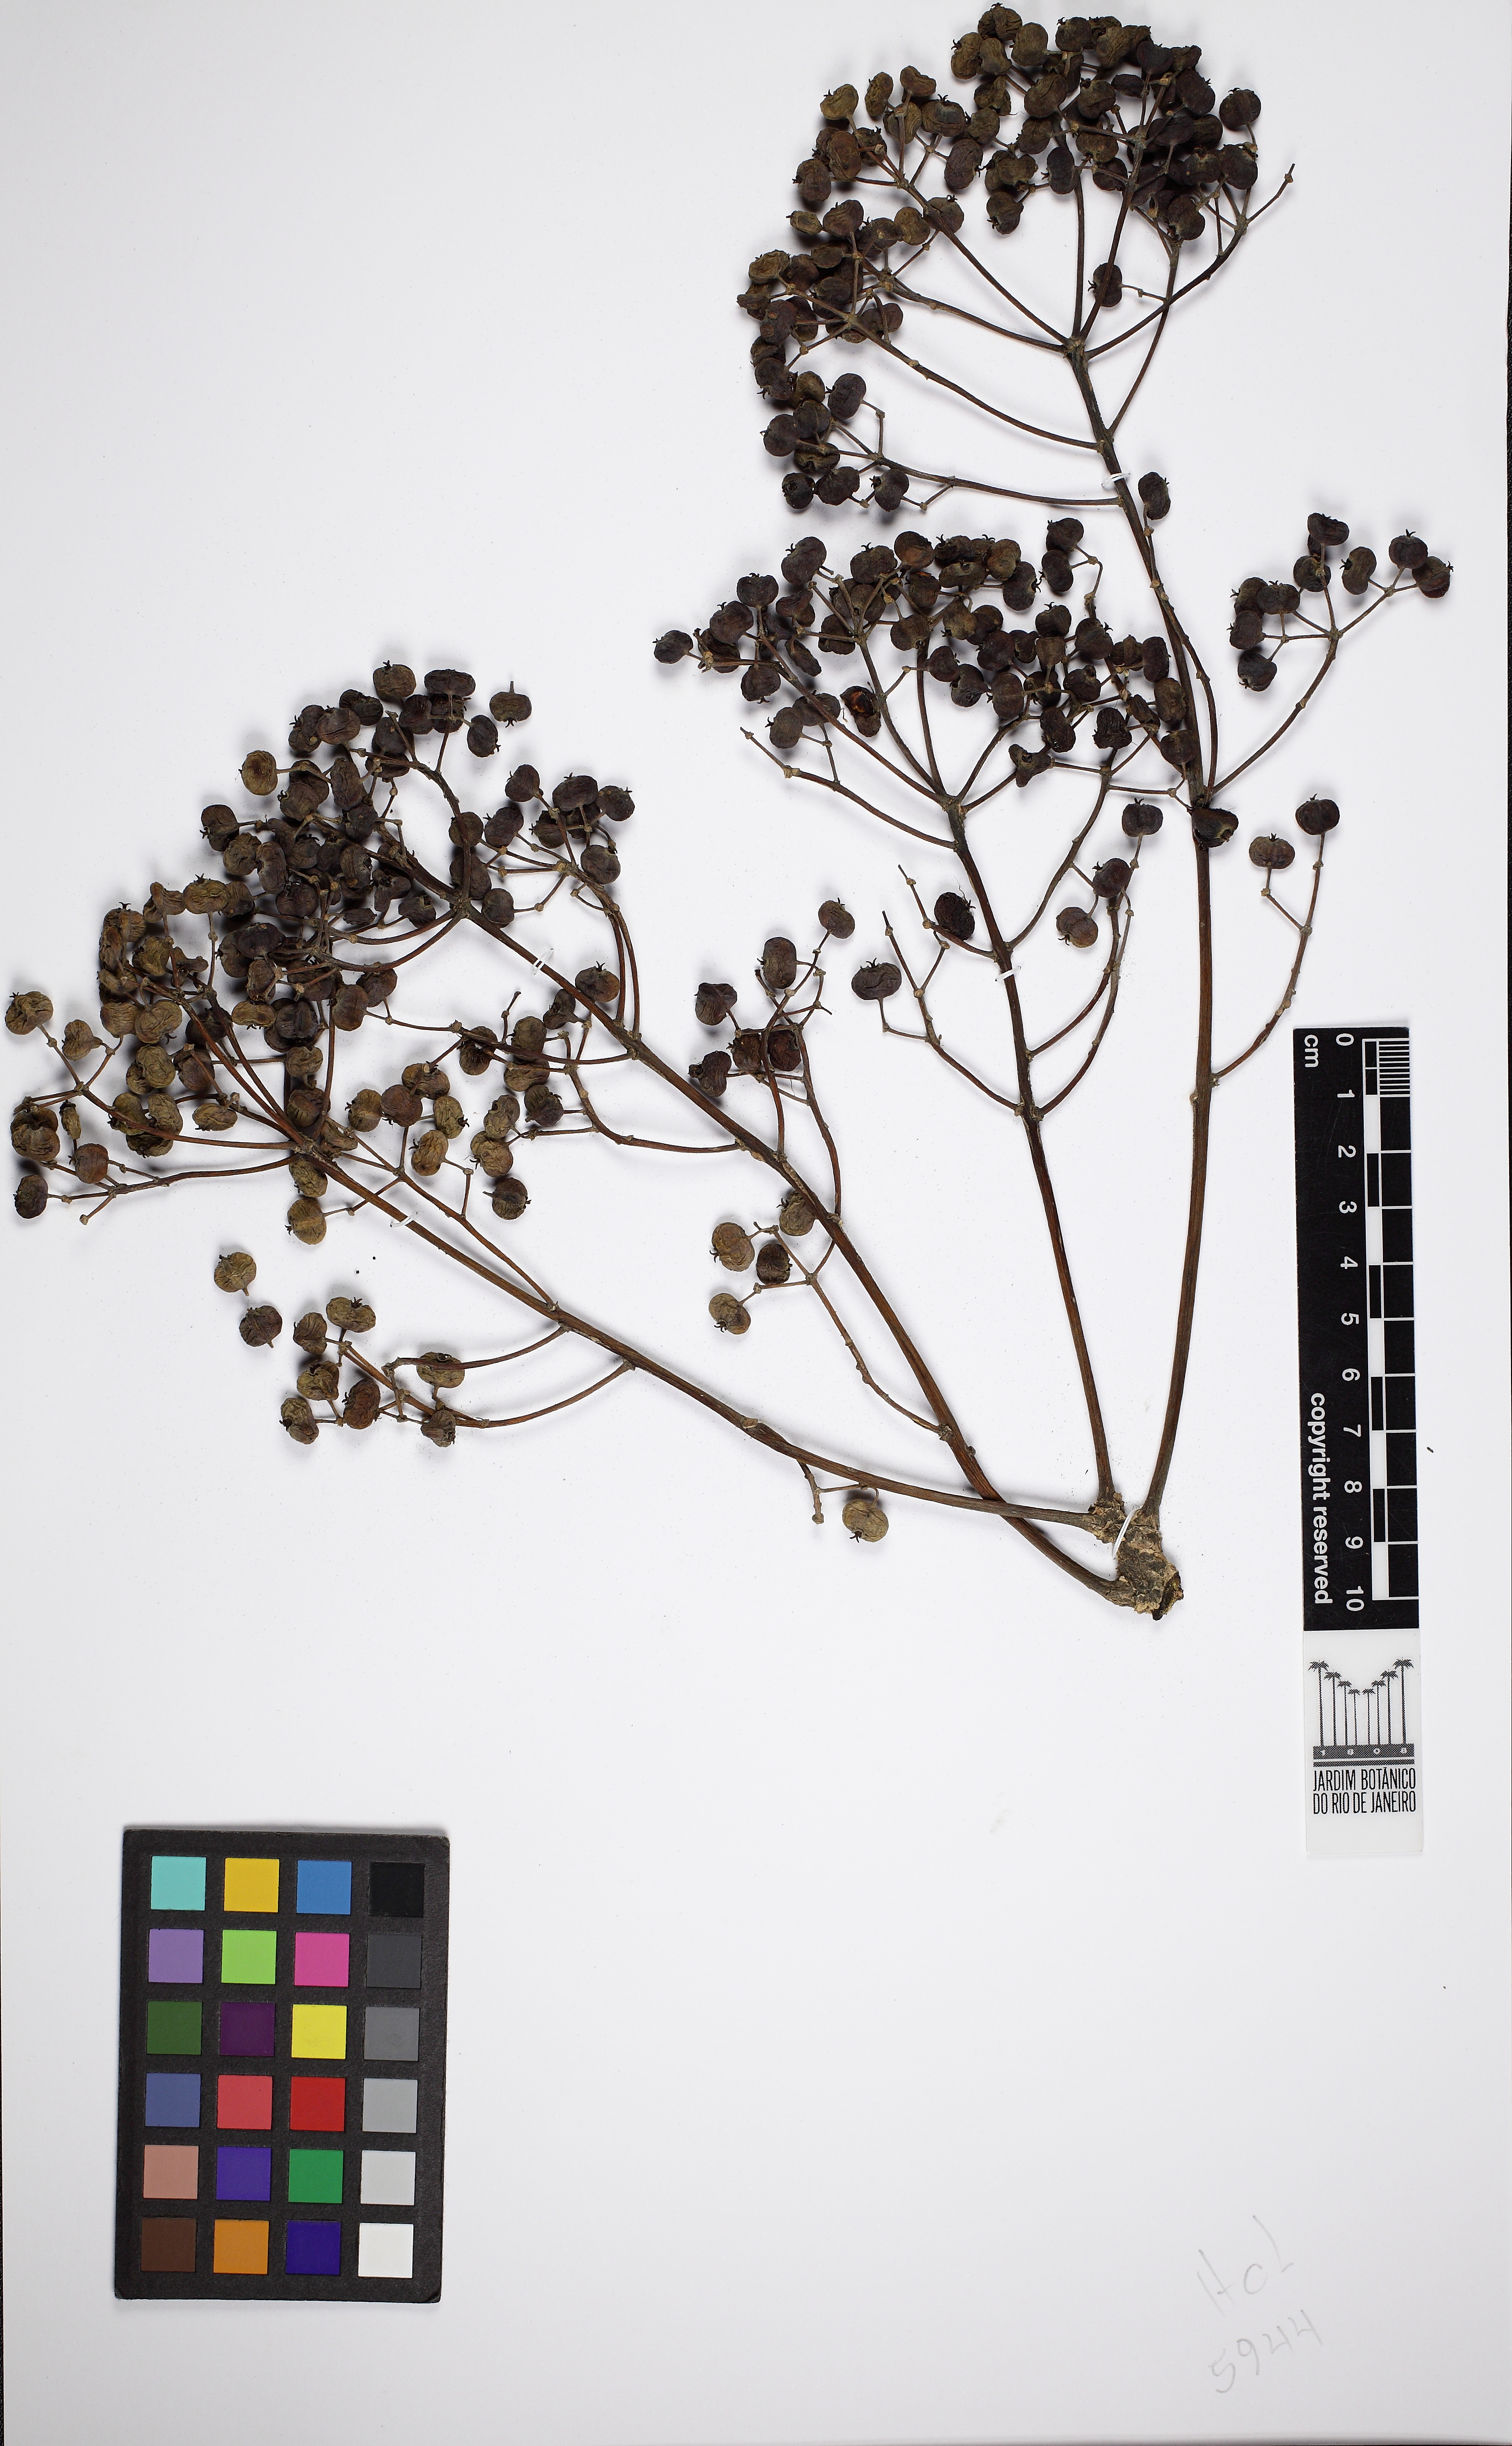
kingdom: Plantae
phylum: Tracheophyta
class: Magnoliopsida
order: Apiales
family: Araliaceae
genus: Didymopanax
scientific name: Didymopanax angustissimus
